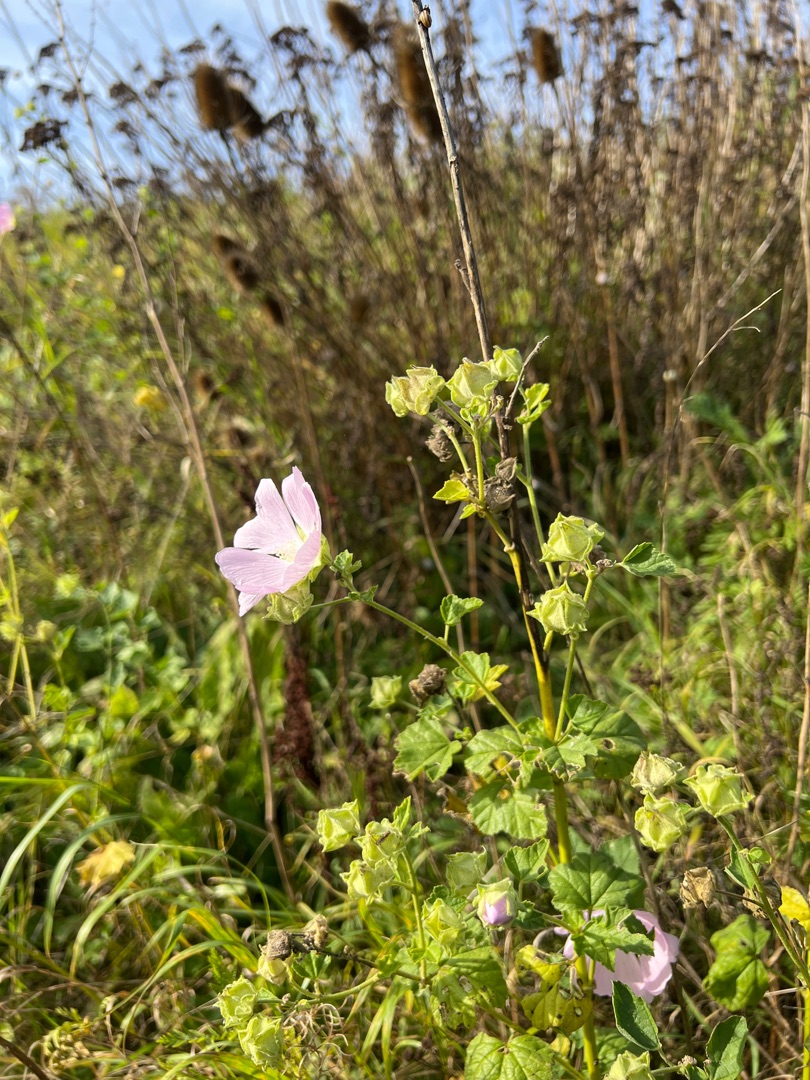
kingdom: Plantae
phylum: Tracheophyta
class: Magnoliopsida
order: Malvales
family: Malvaceae
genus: Malva
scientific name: Malva thuringiaca
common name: Tysk poppelrose
